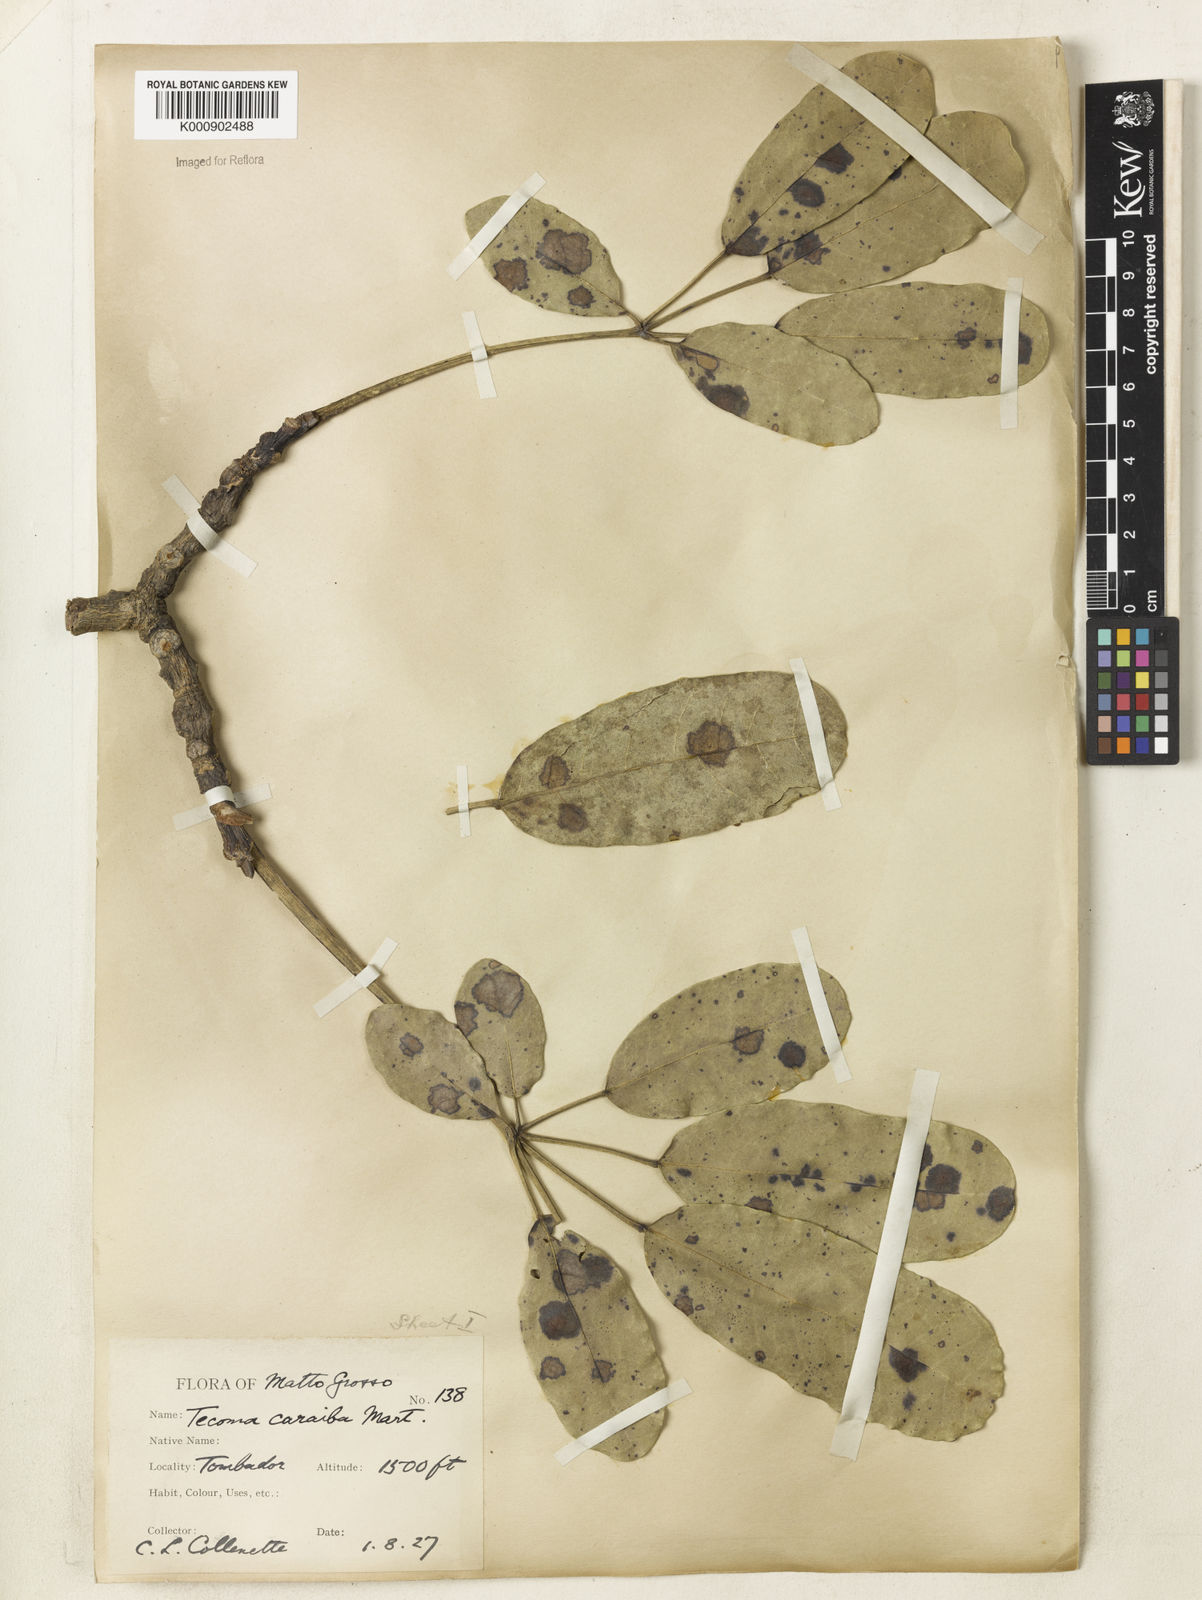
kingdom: Plantae
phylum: Tracheophyta
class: Magnoliopsida
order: Lamiales
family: Bignoniaceae
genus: Tabebuia
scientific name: Tabebuia aurea
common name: Caribbean trumpet-tree
